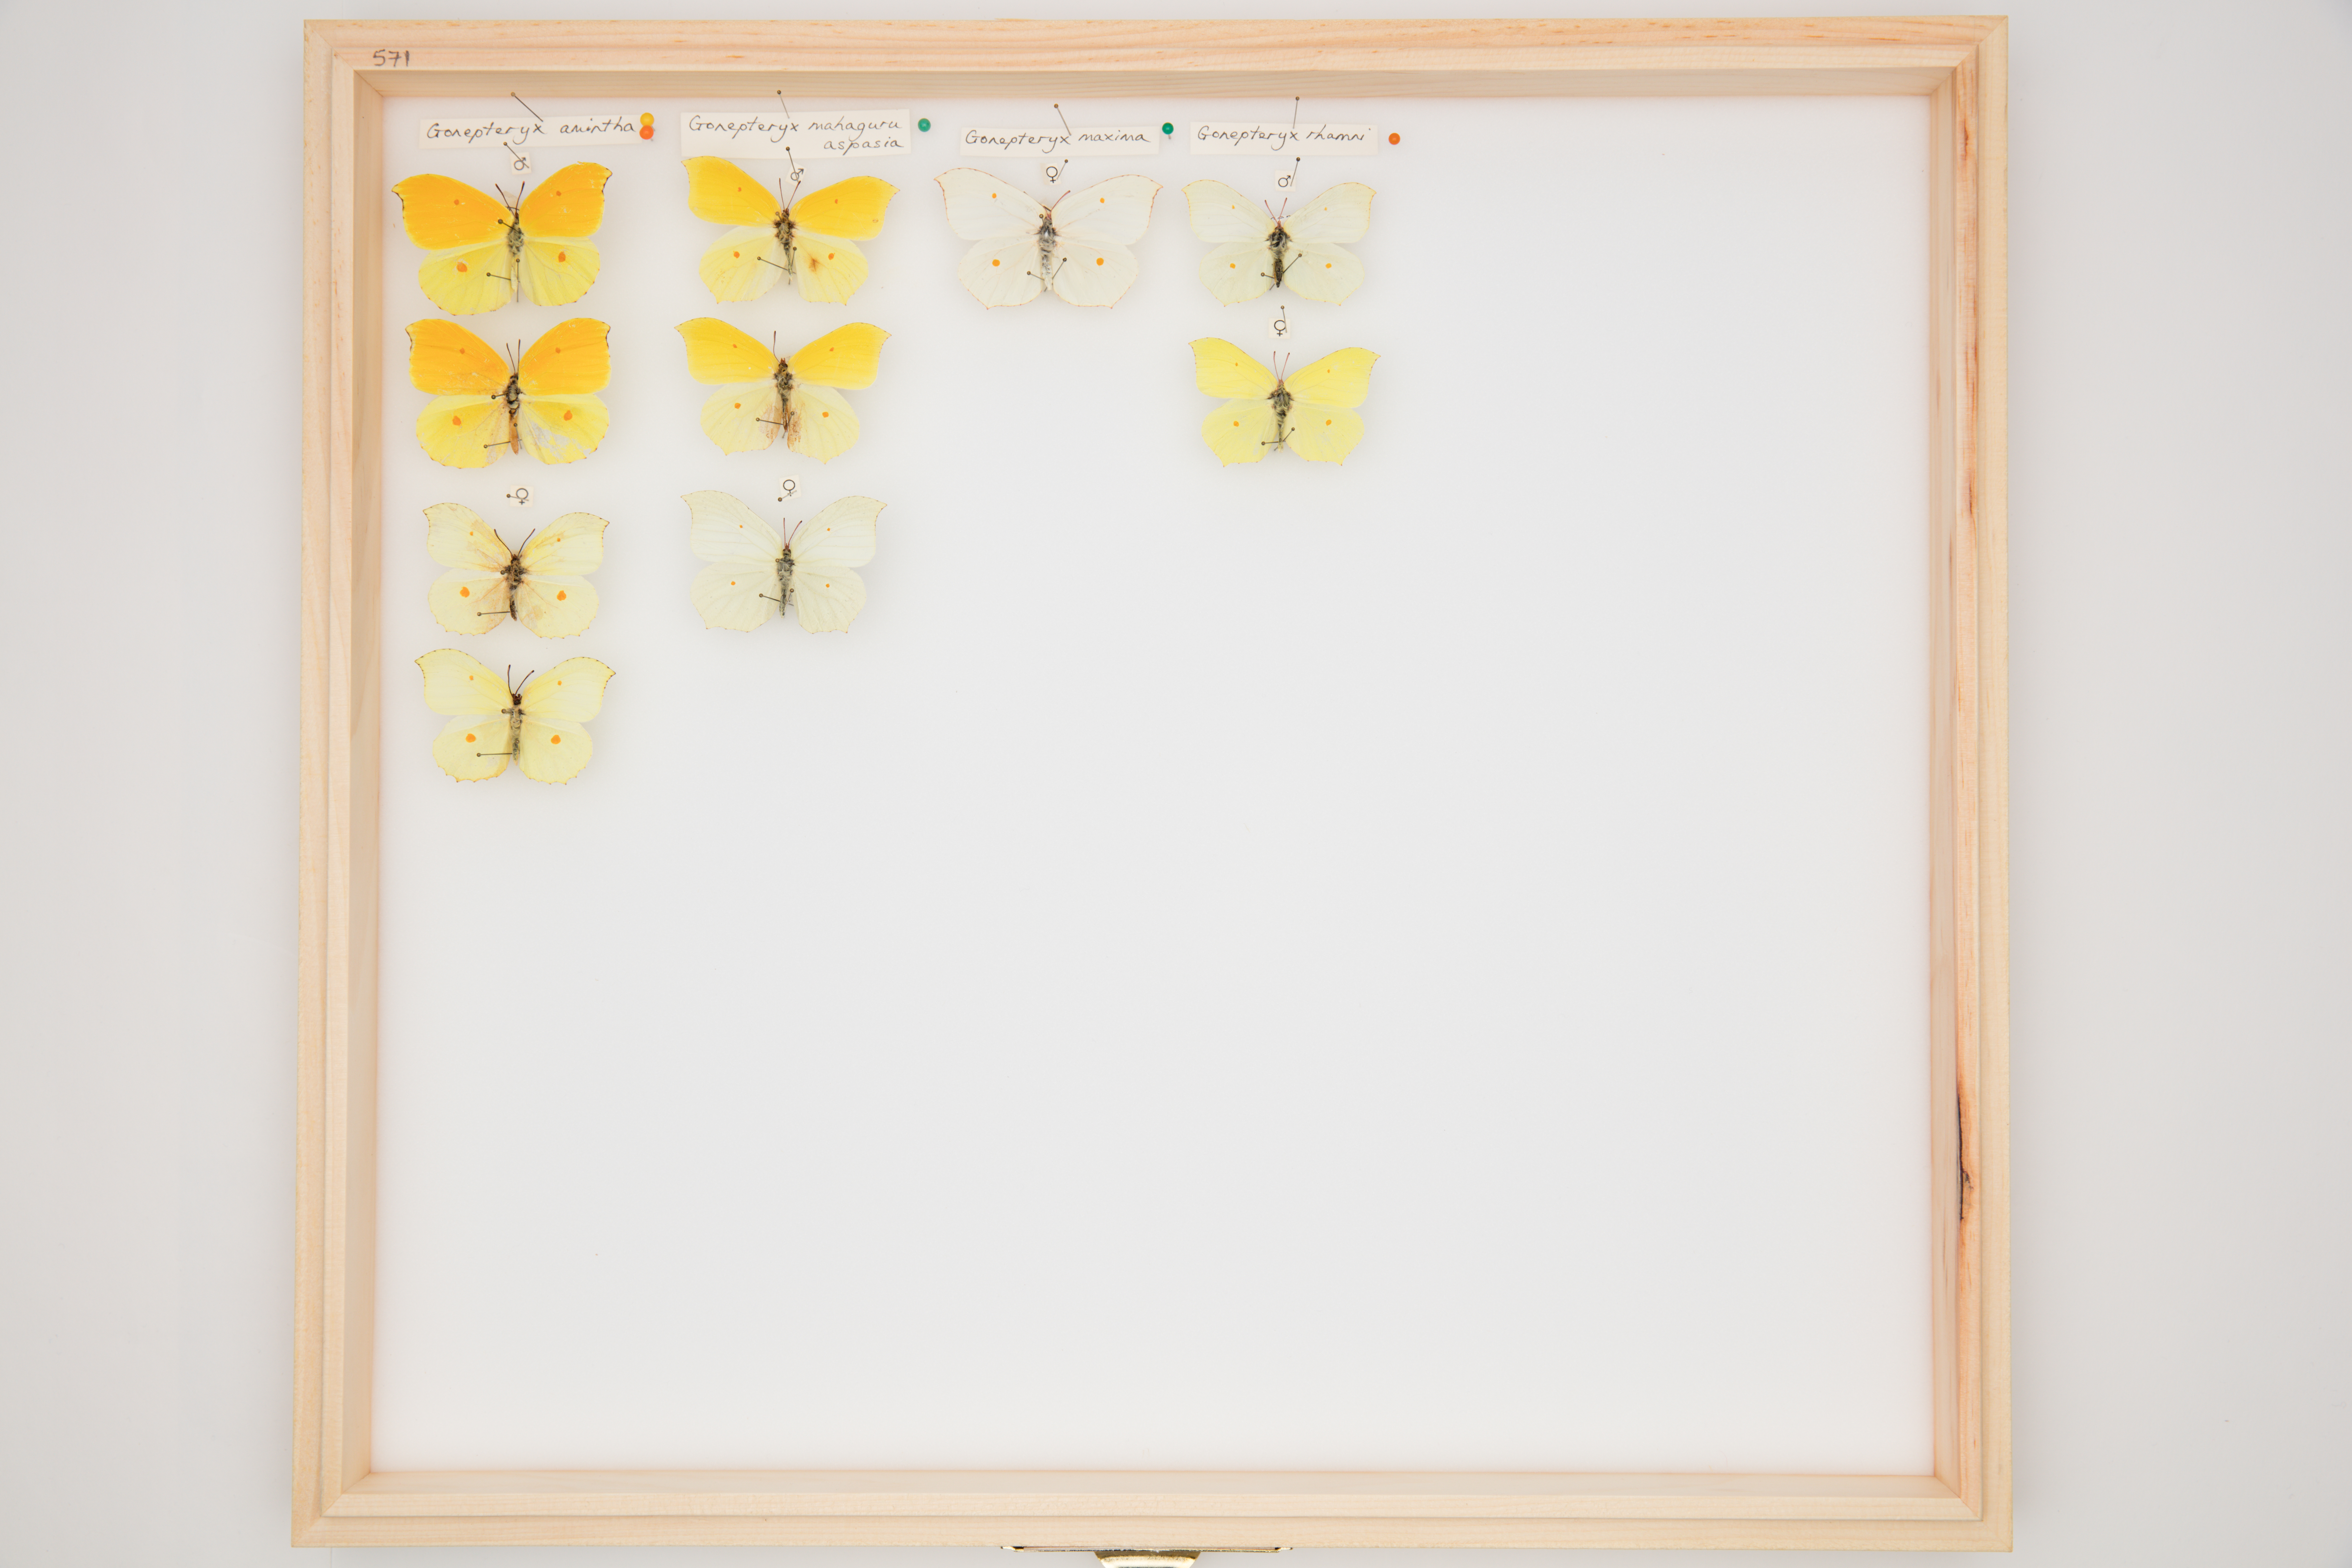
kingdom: Animalia
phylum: Arthropoda
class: Insecta
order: Lepidoptera
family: Pieridae
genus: Gonepteryx
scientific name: Gonepteryx maxima
